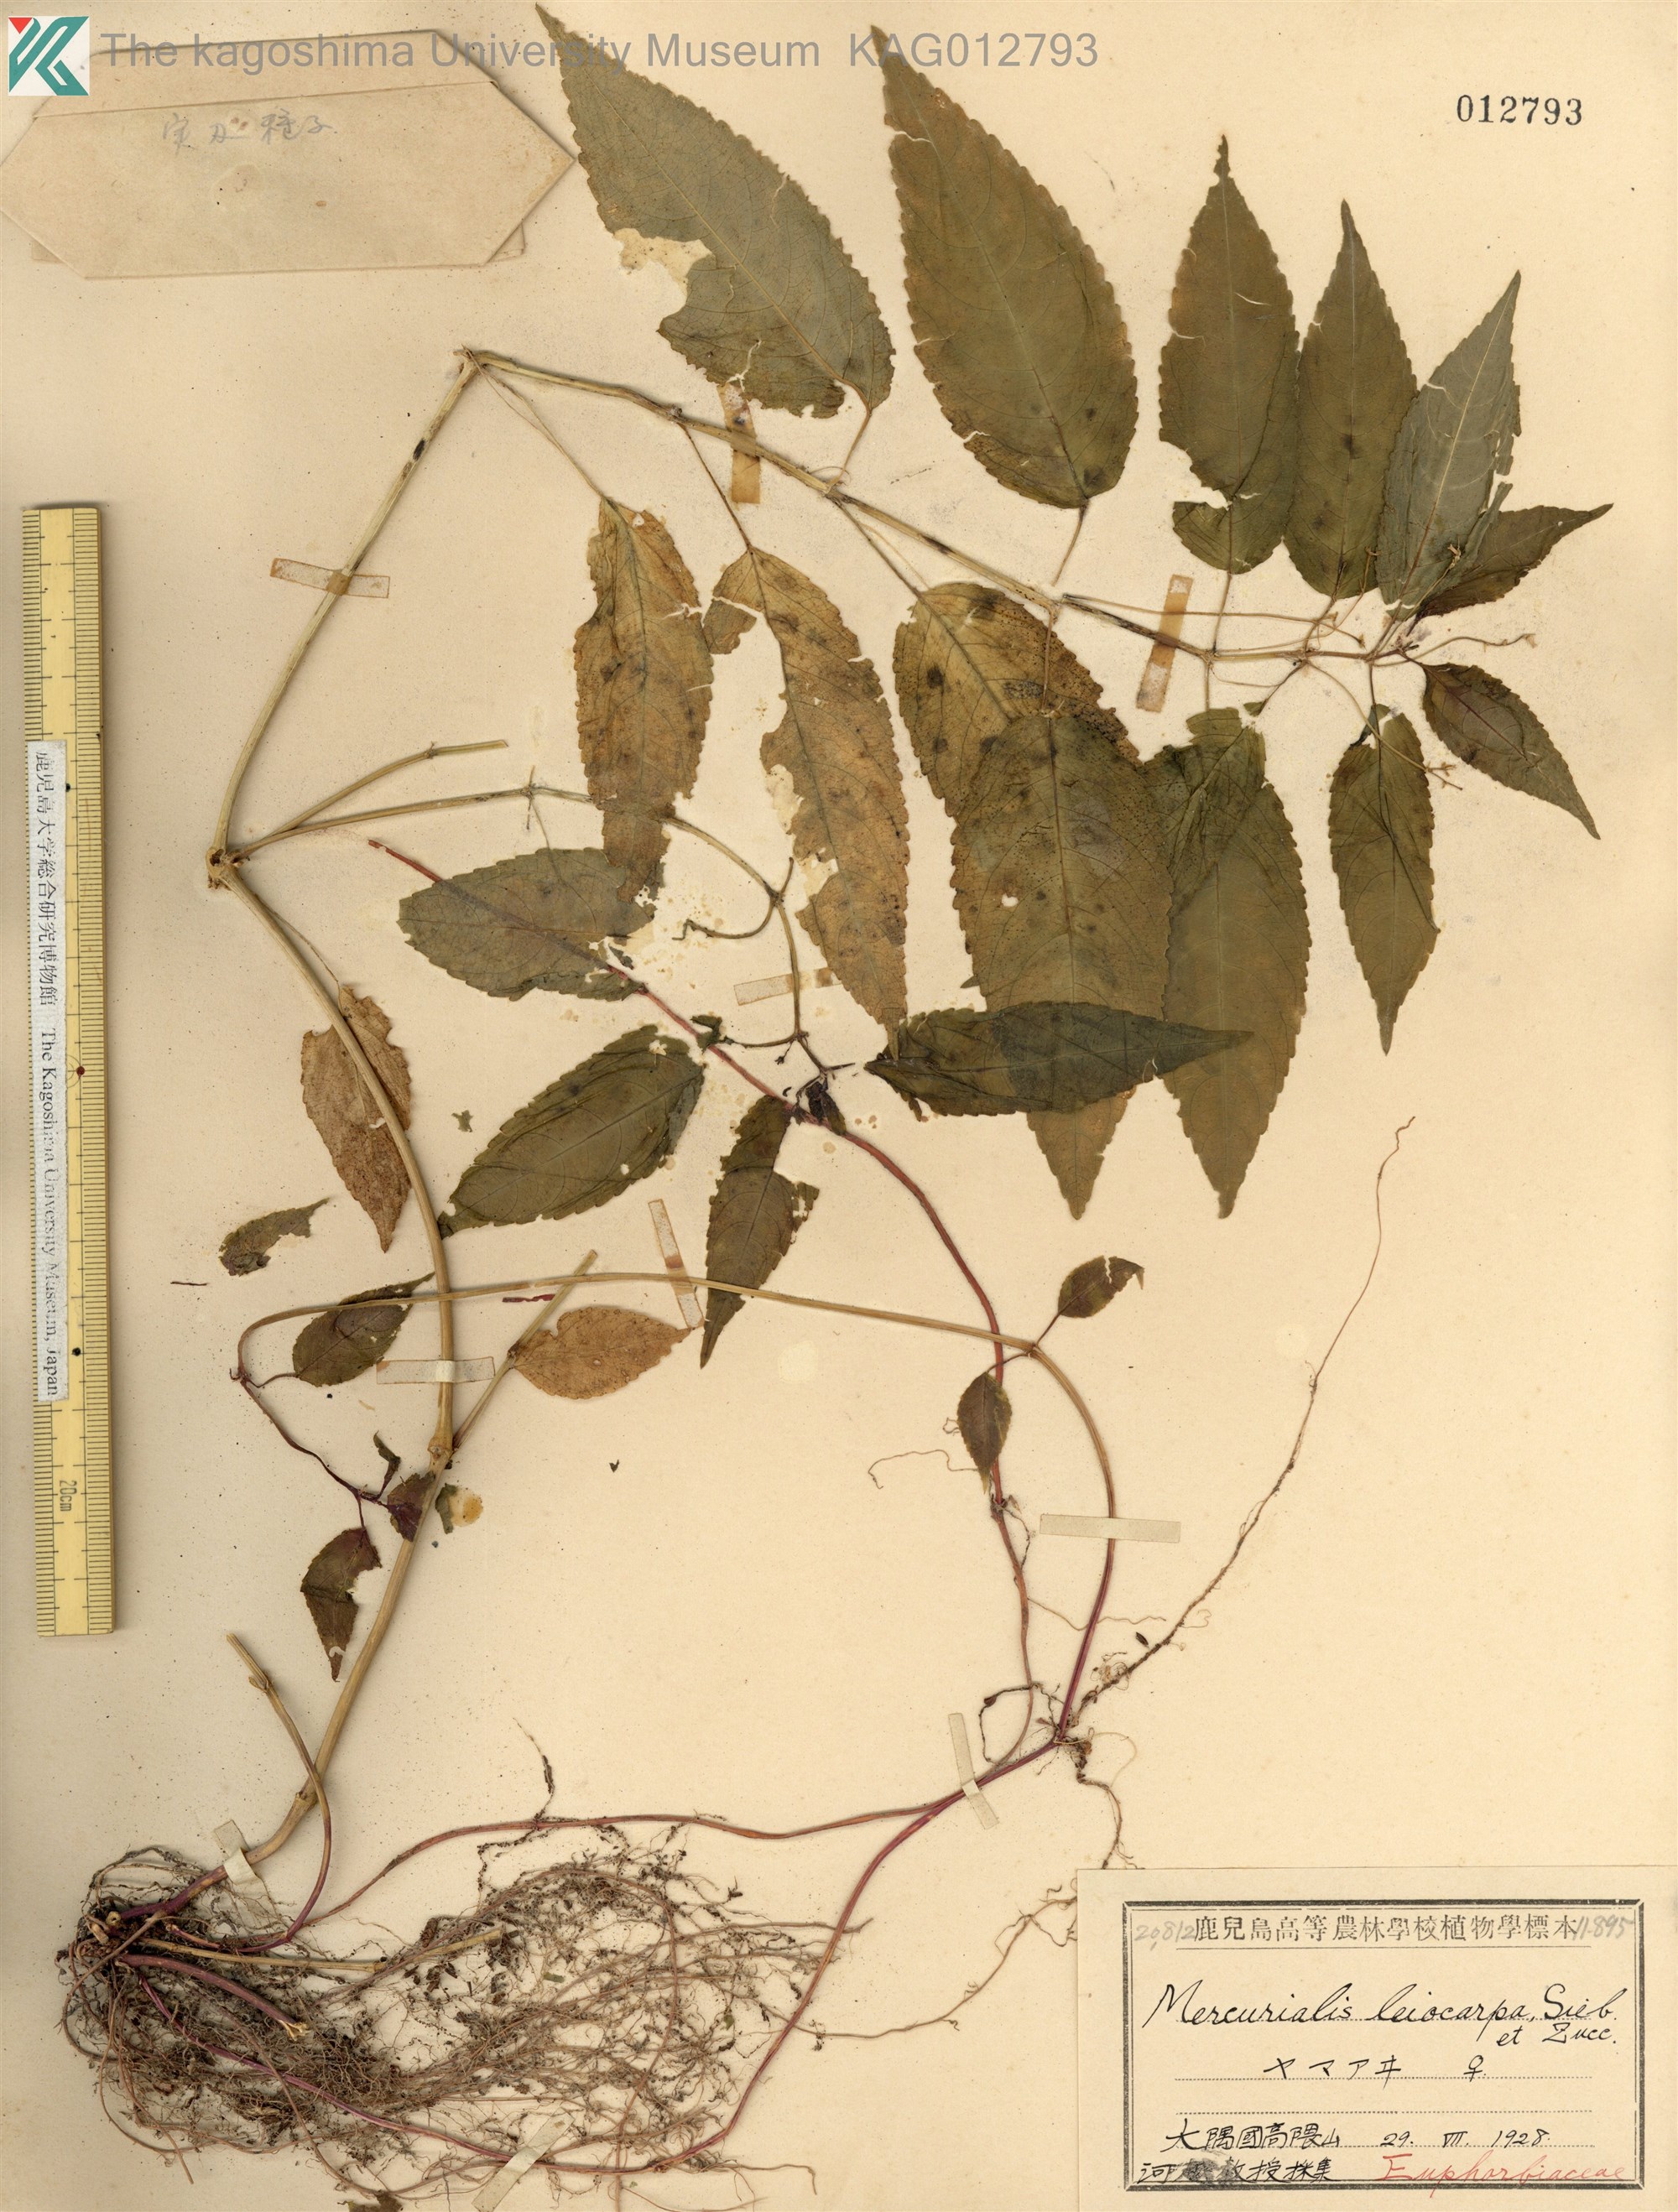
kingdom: Plantae
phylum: Tracheophyta
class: Magnoliopsida
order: Malpighiales
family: Euphorbiaceae
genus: Mercurialis
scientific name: Mercurialis leiocarpa
